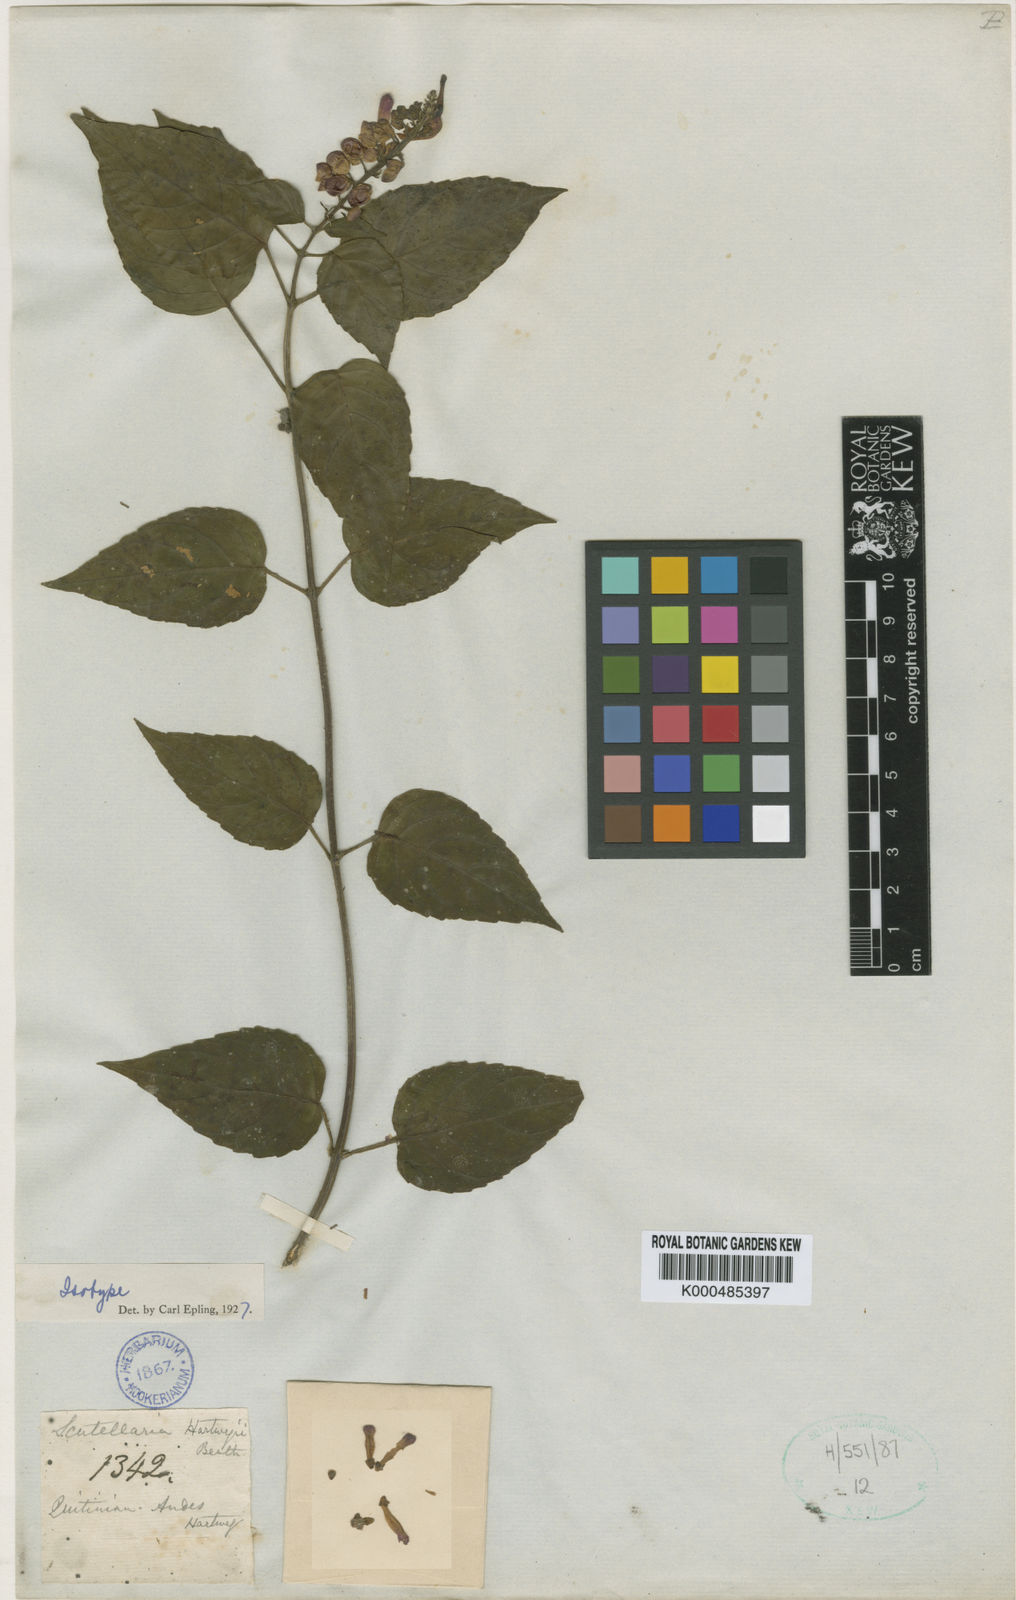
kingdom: Plantae
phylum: Tracheophyta
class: Magnoliopsida
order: Lamiales
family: Lamiaceae
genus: Scutellaria
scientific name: Scutellaria coccinea
